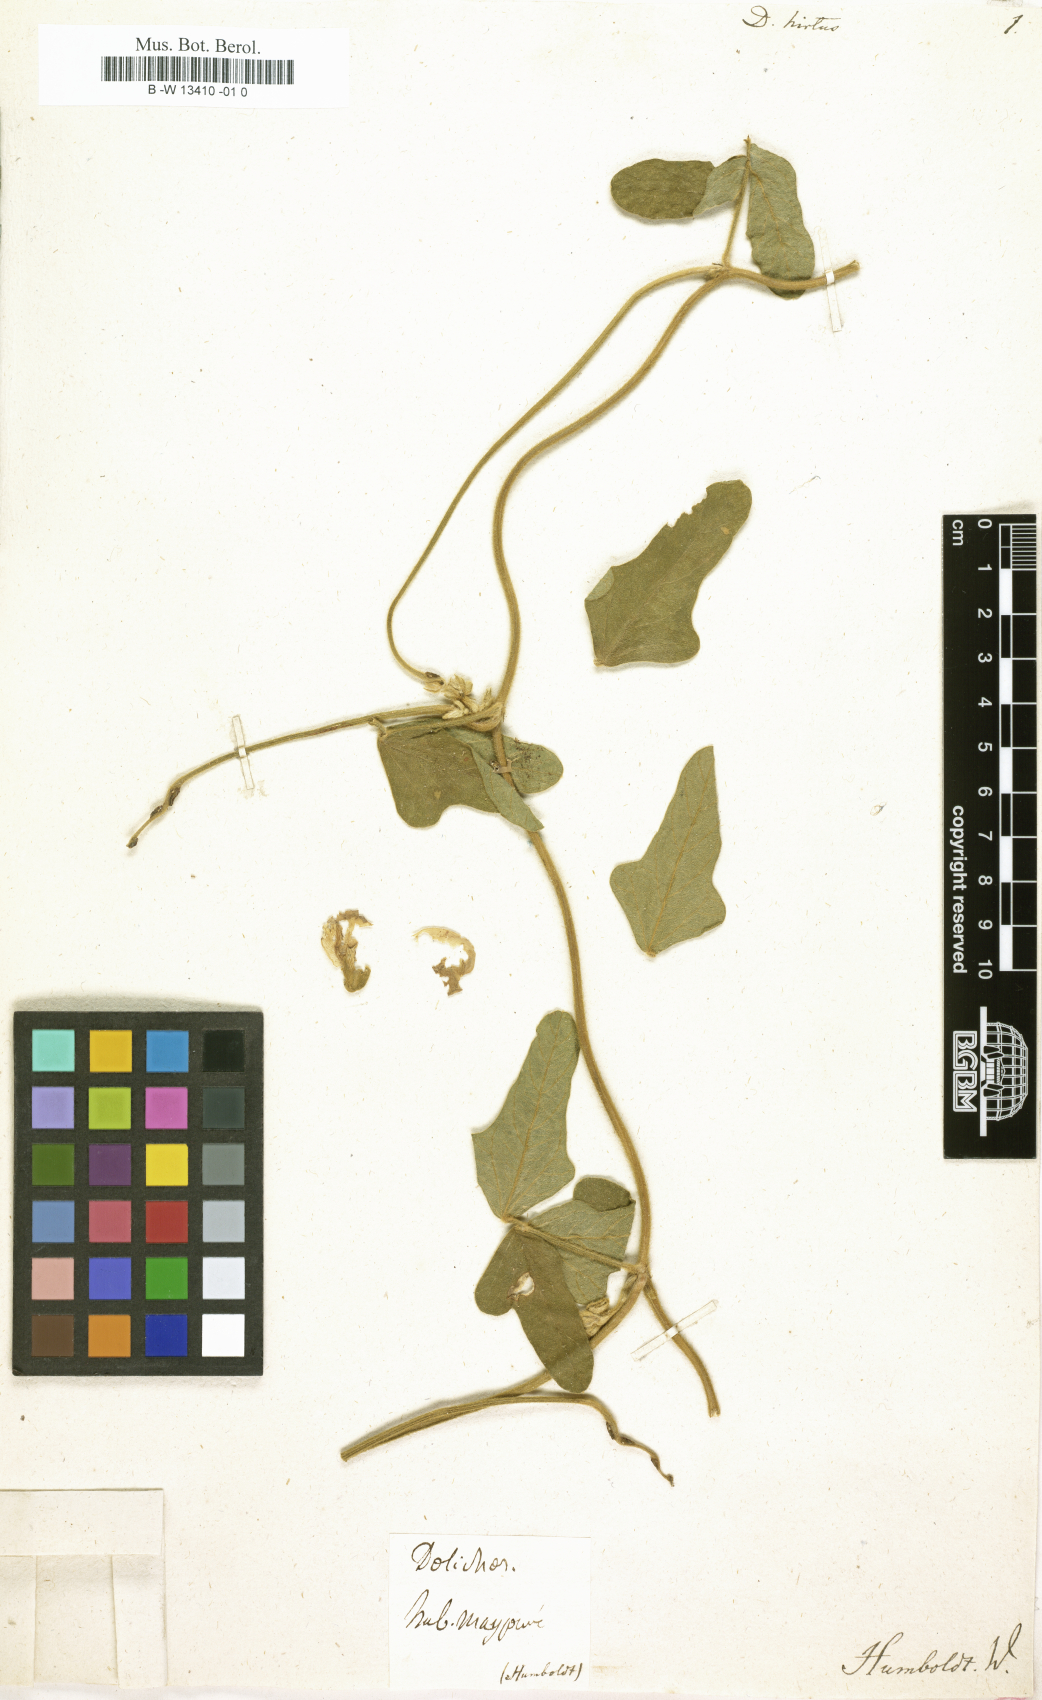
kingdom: Plantae
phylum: Tracheophyta
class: Magnoliopsida
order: Fabales
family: Fabaceae
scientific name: Fabaceae
